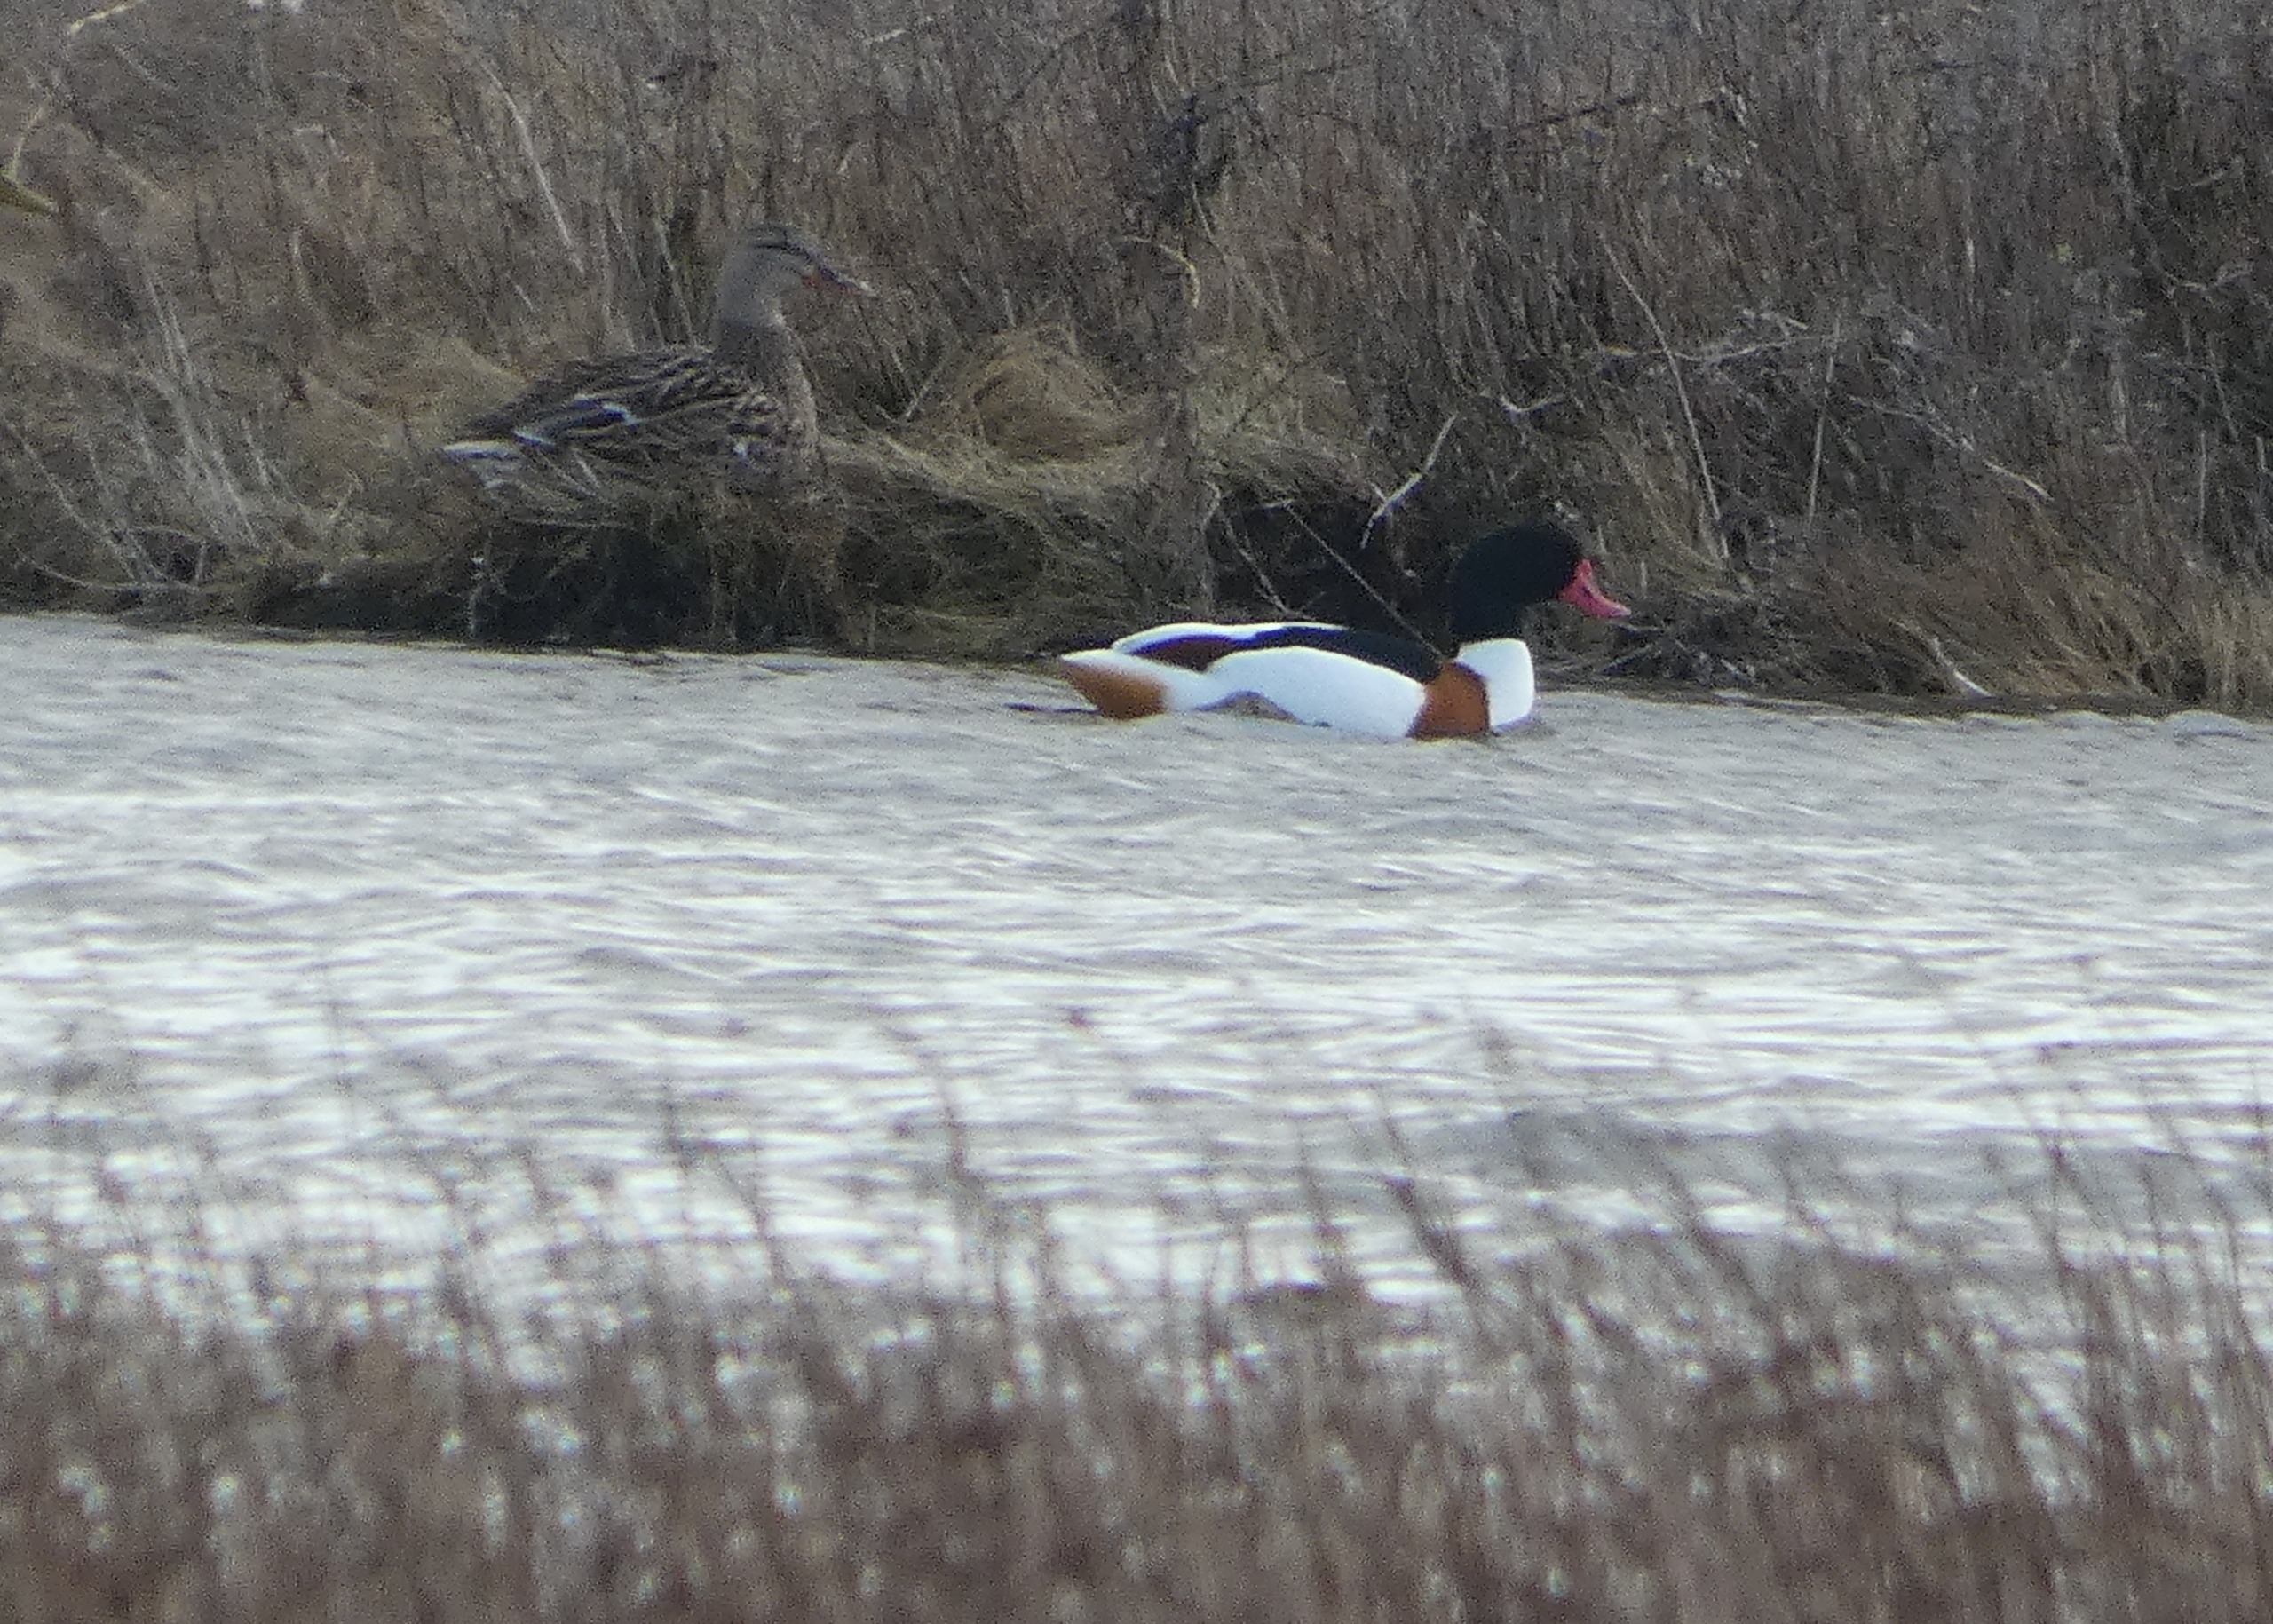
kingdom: Animalia
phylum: Chordata
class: Aves
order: Anseriformes
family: Anatidae
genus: Tadorna
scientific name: Tadorna tadorna
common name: Gravand
